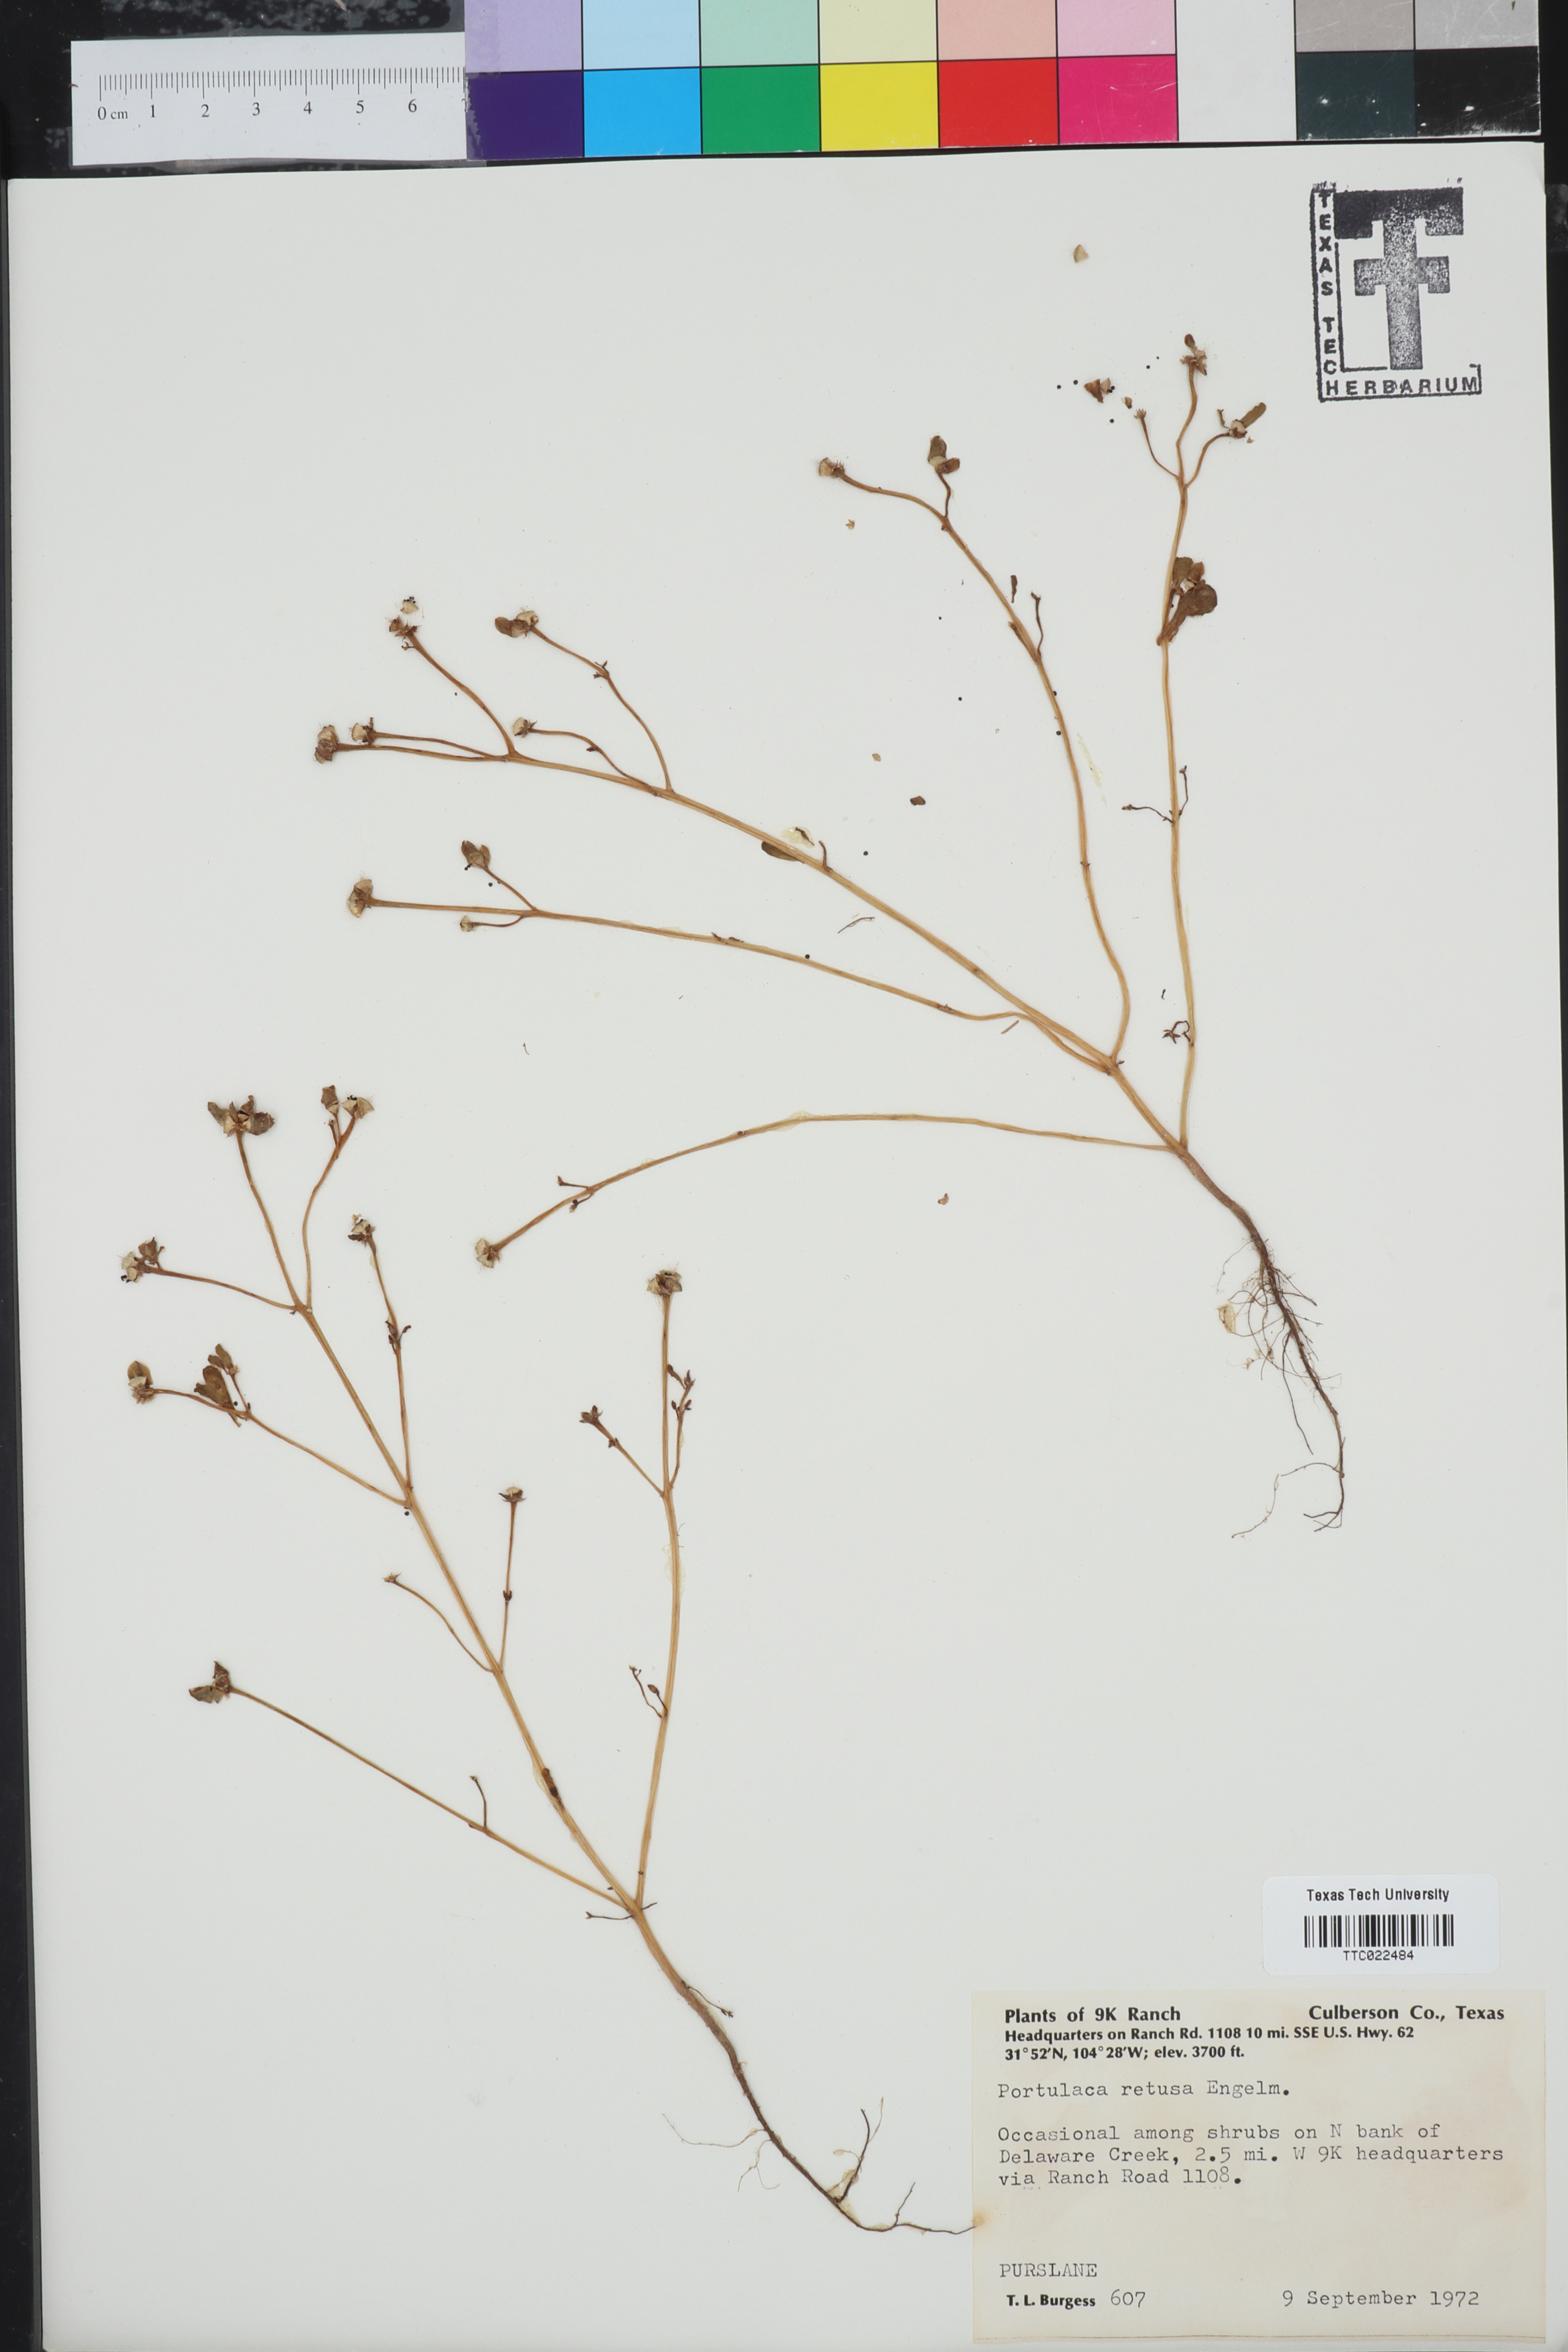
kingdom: Plantae
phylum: Tracheophyta
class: Magnoliopsida
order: Caryophyllales
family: Portulacaceae
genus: Portulaca
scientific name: Portulaca oleracea
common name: Common purslane
